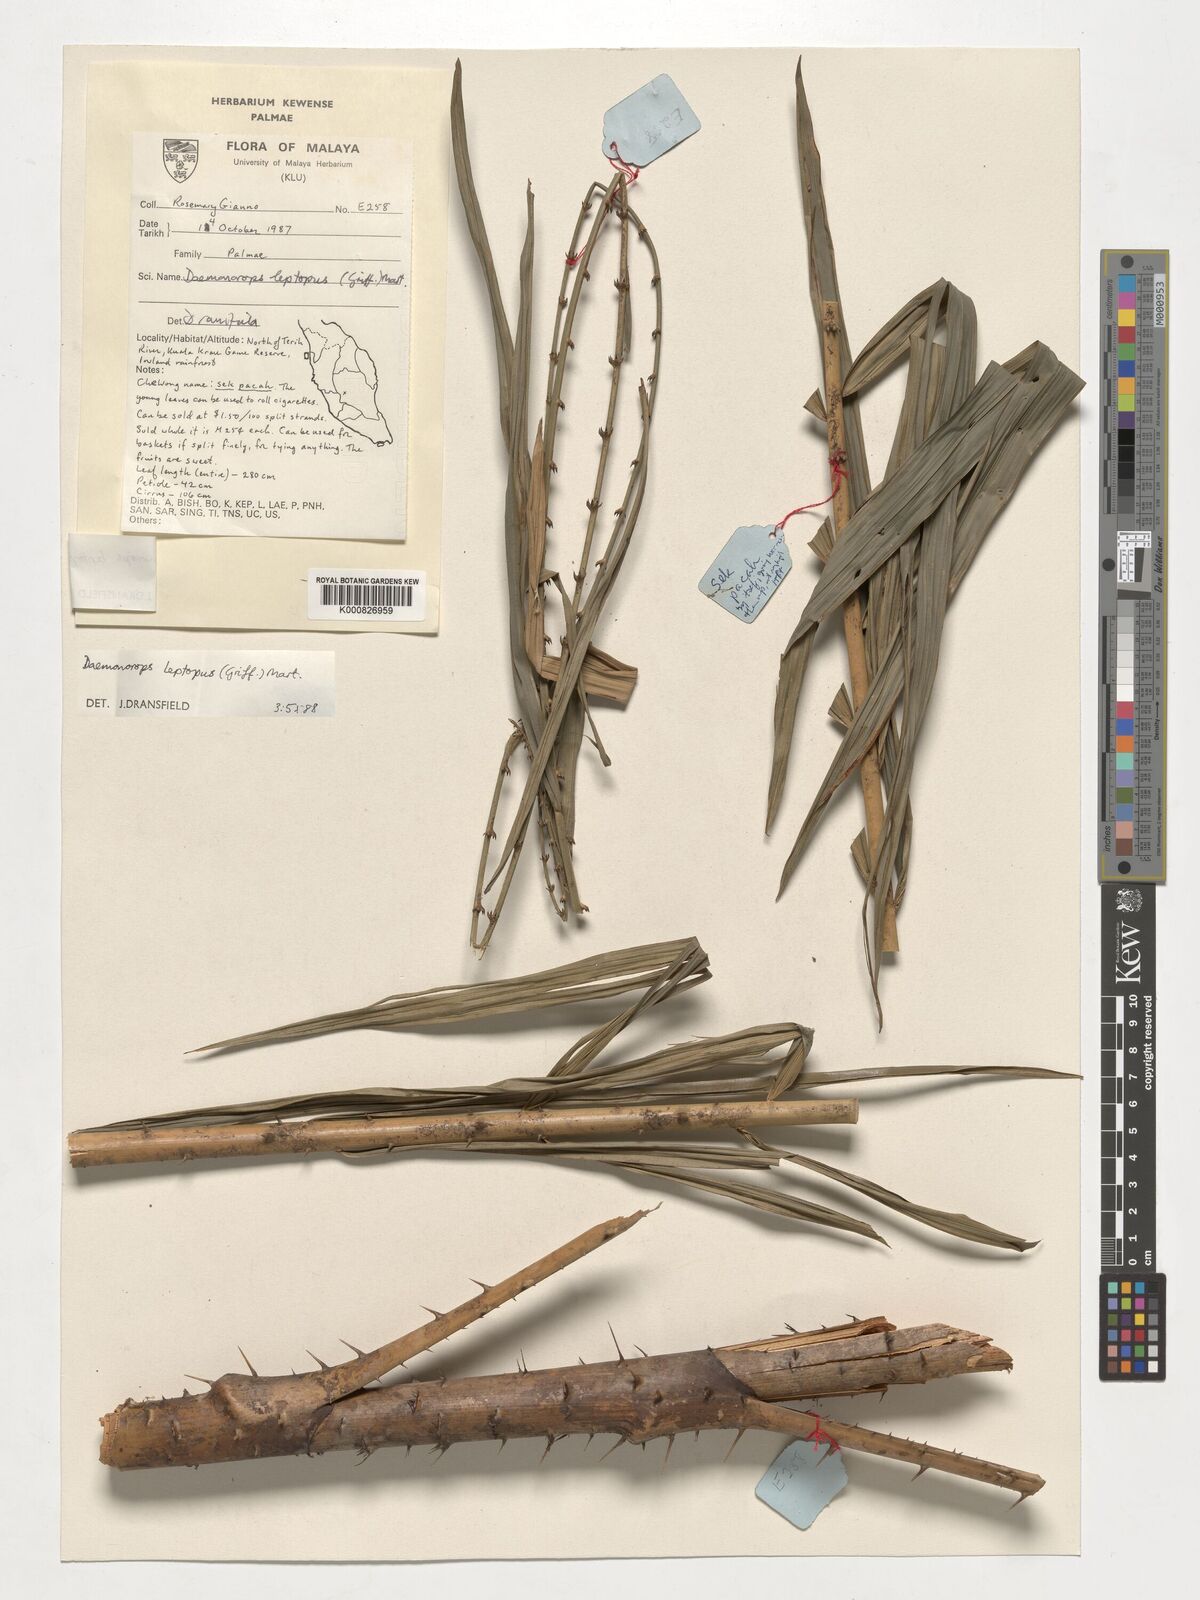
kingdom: Plantae
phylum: Tracheophyta
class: Liliopsida
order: Arecales
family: Arecaceae
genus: Calamus
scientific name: Calamus leptopus
